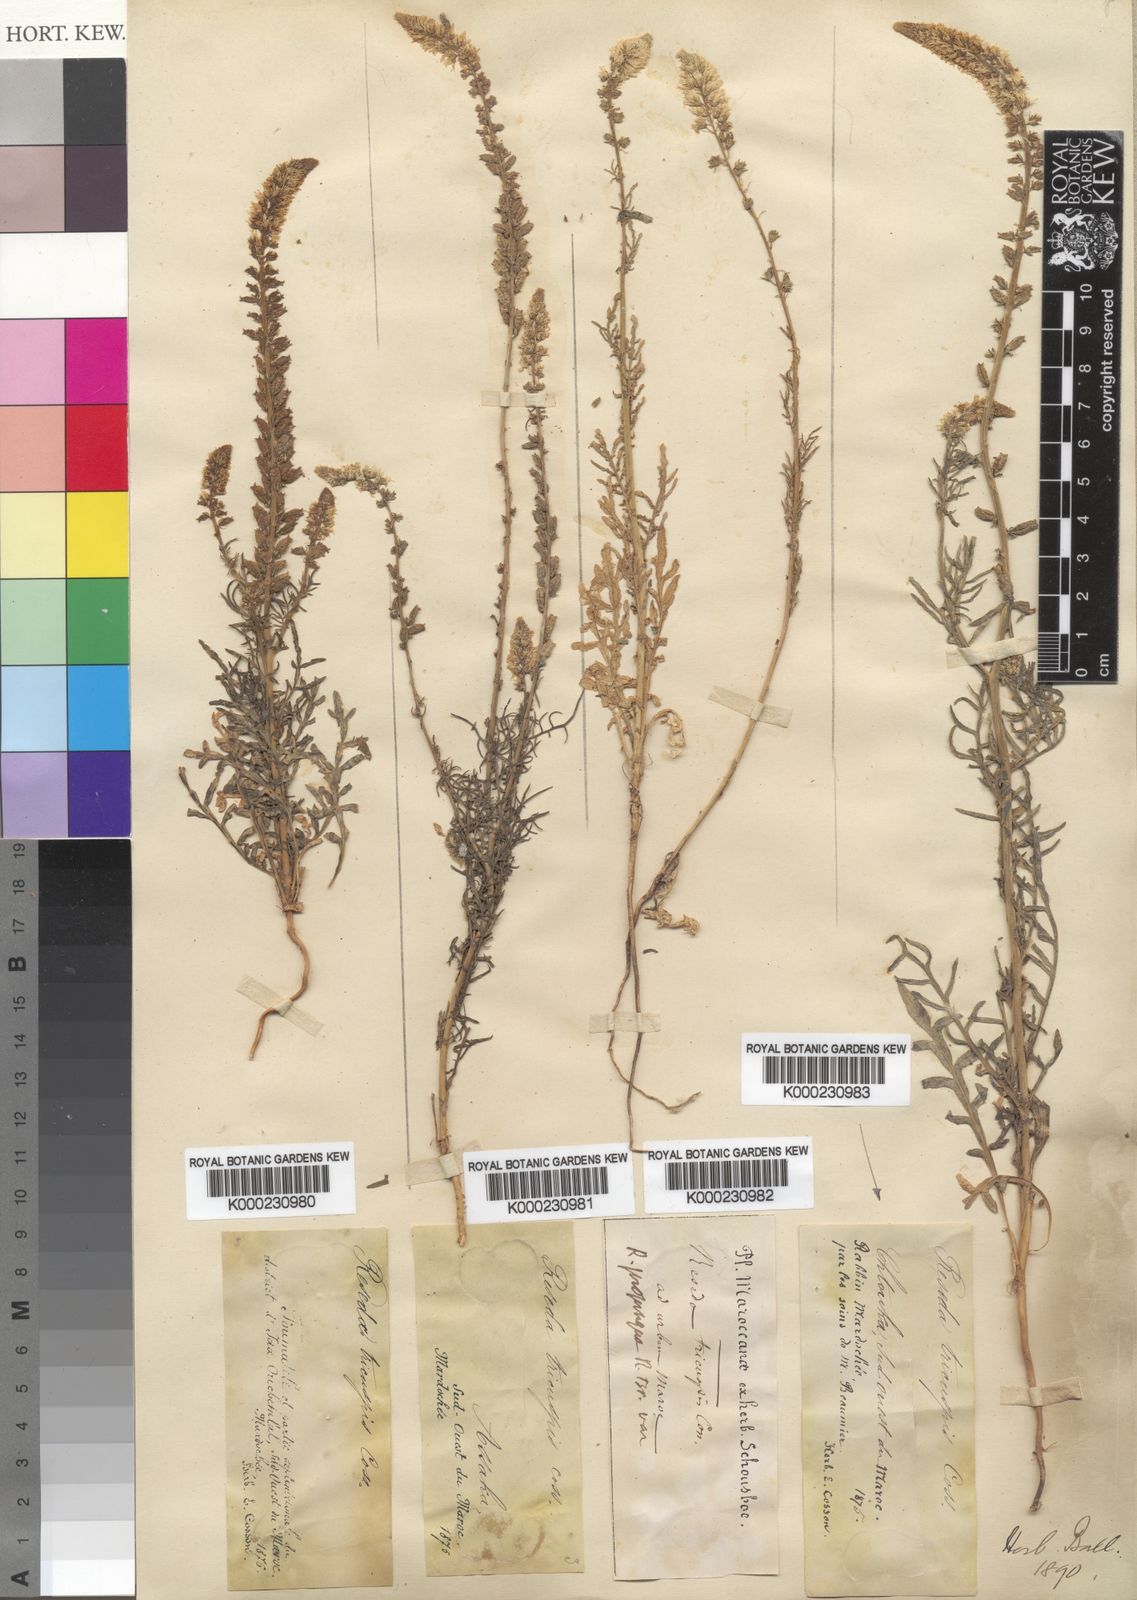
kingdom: Plantae
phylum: Tracheophyta
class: Magnoliopsida
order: Brassicales
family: Resedaceae
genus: Reseda
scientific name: Reseda alba
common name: White mignonette
